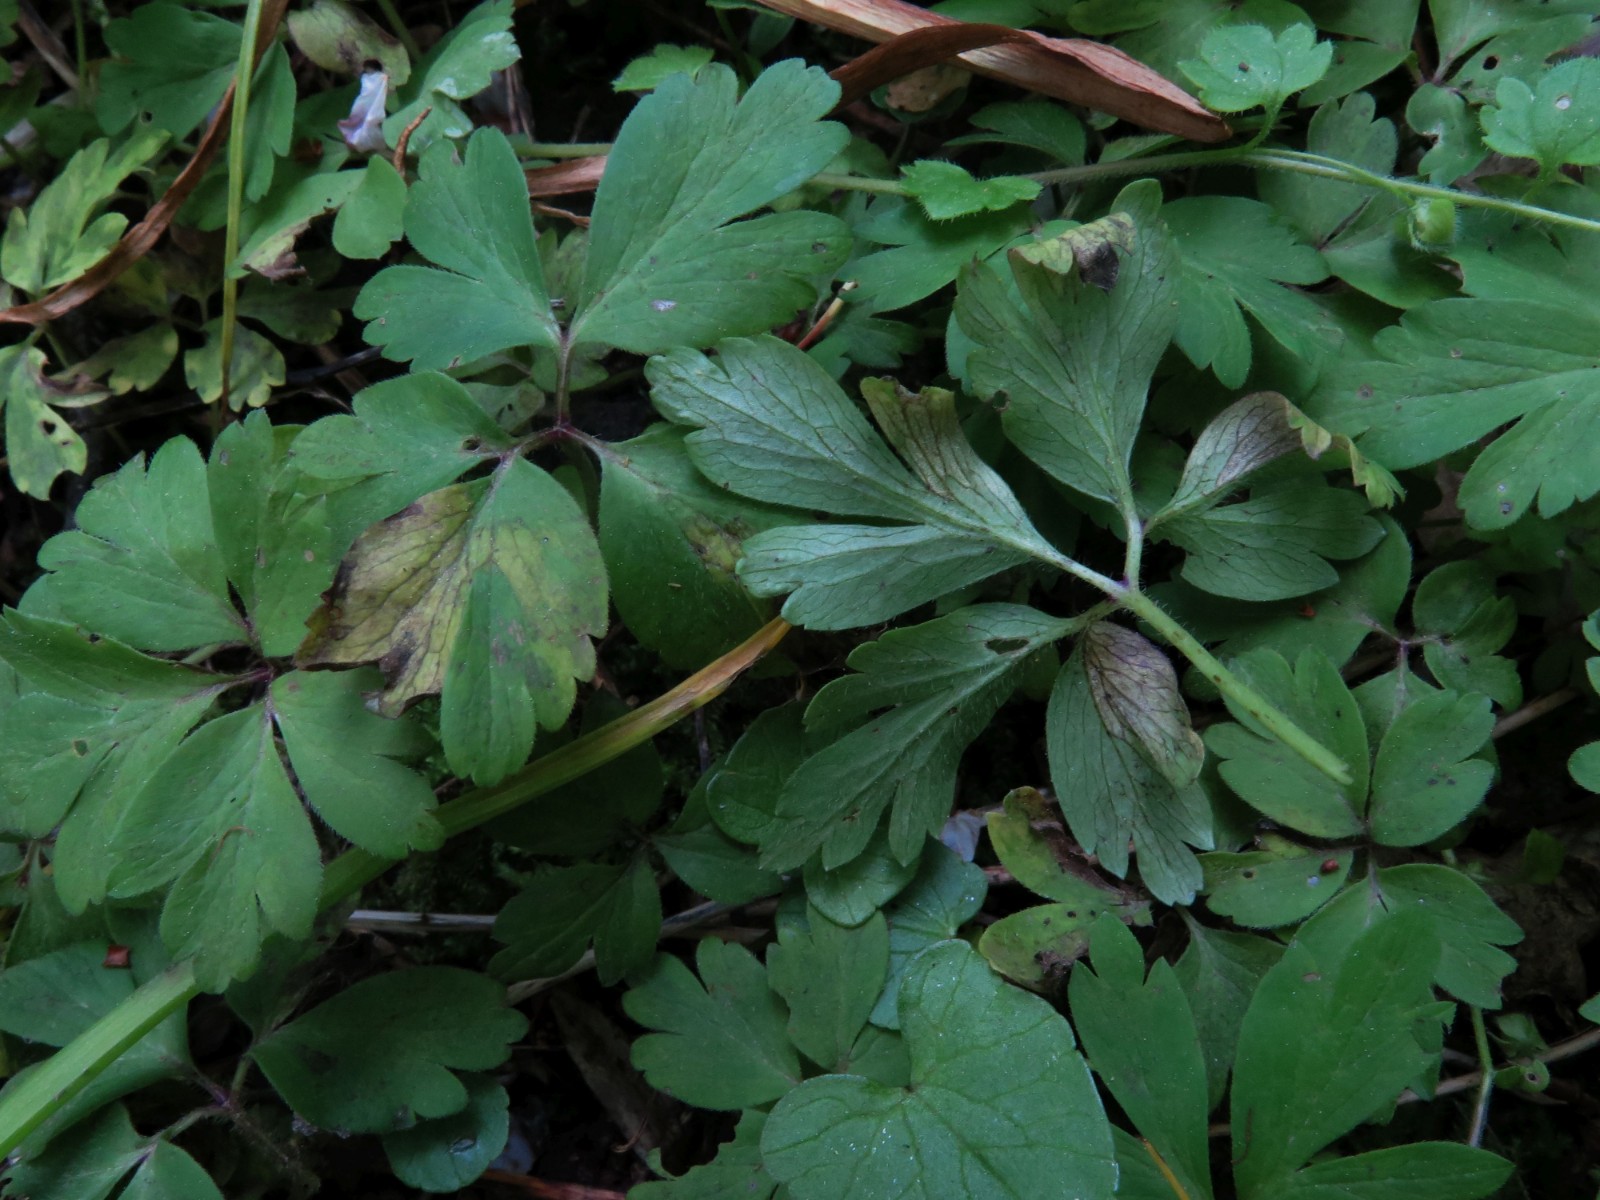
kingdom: Chromista
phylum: Oomycota
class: Peronosporea
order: Peronosporales
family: Peronosporaceae
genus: Peronospora
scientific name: Peronospora bulbocapni
